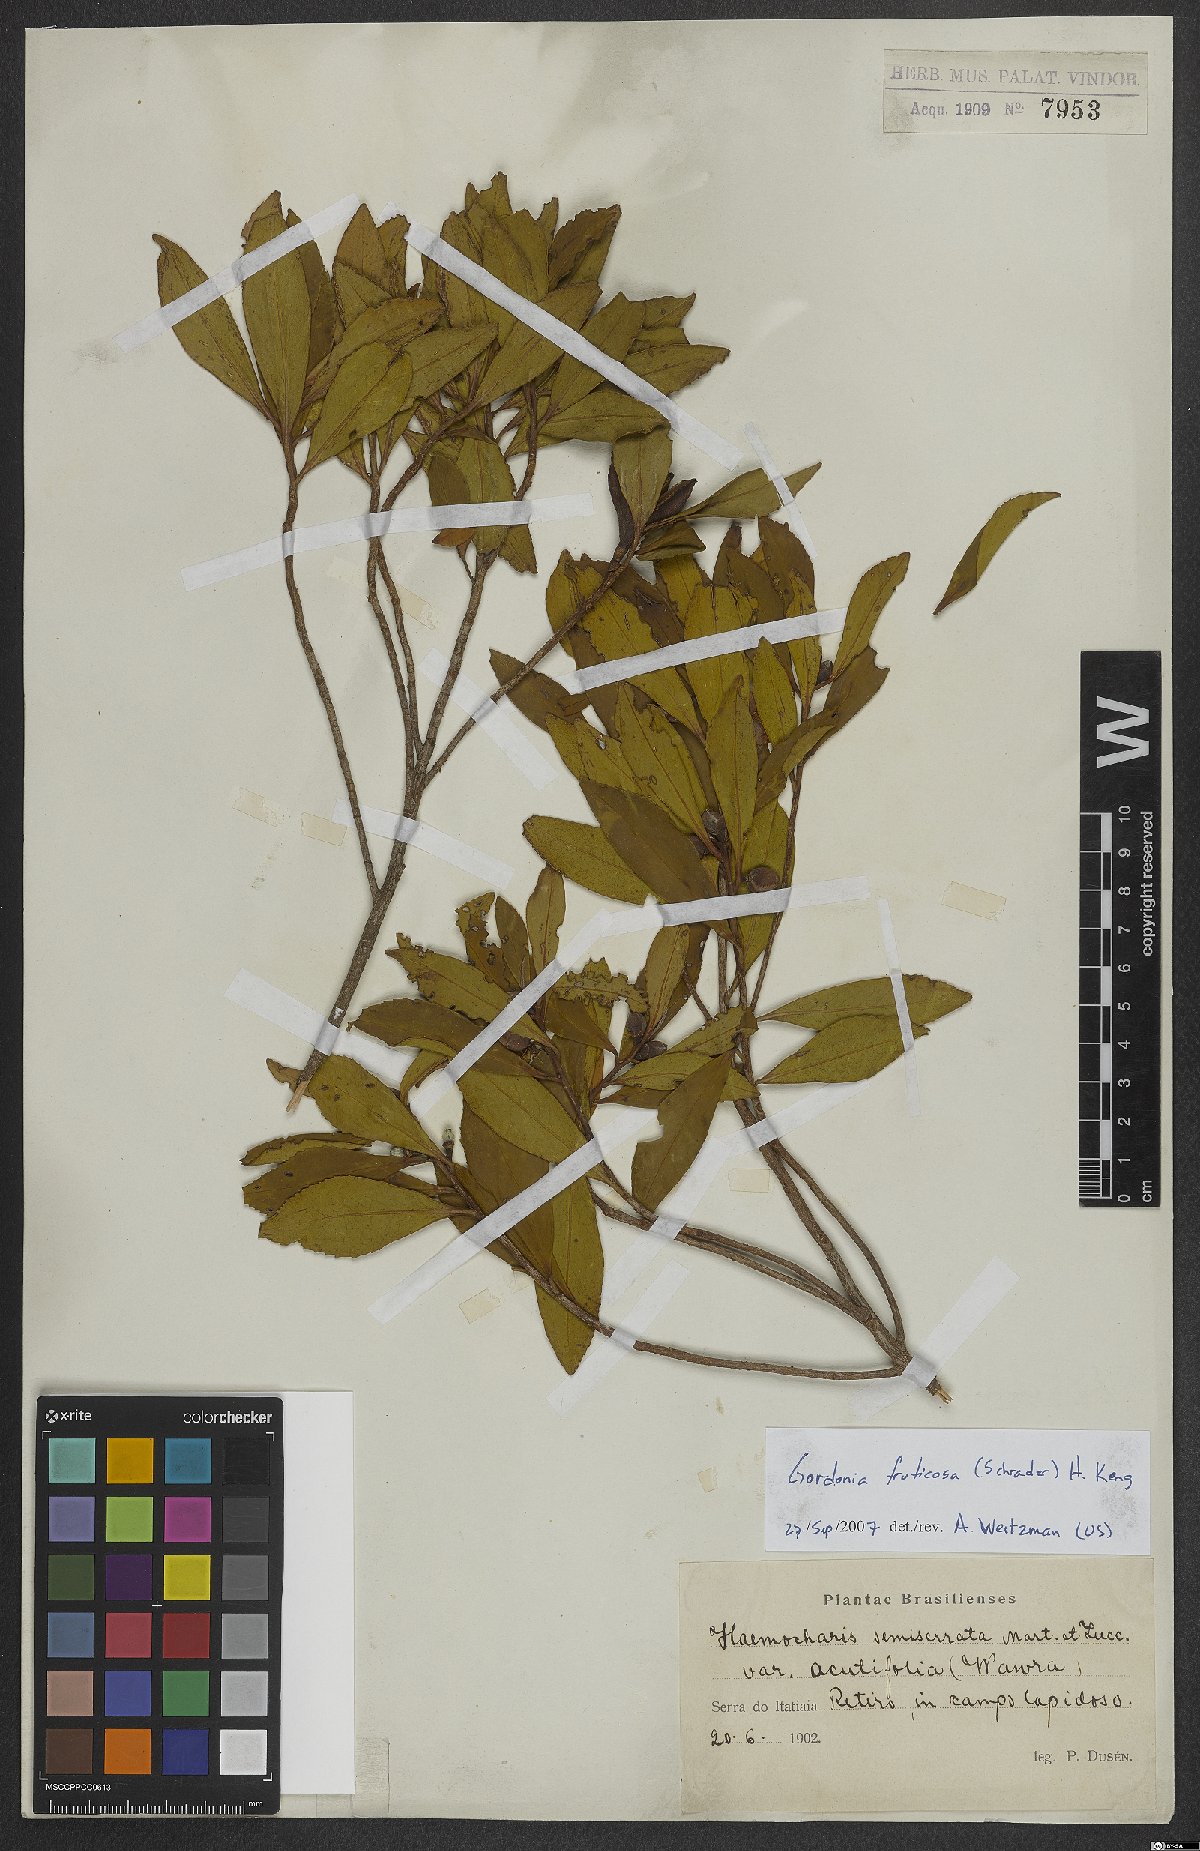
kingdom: Plantae
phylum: Tracheophyta
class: Magnoliopsida
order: Ericales
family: Theaceae
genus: Gordonia
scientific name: Gordonia fruticosa
